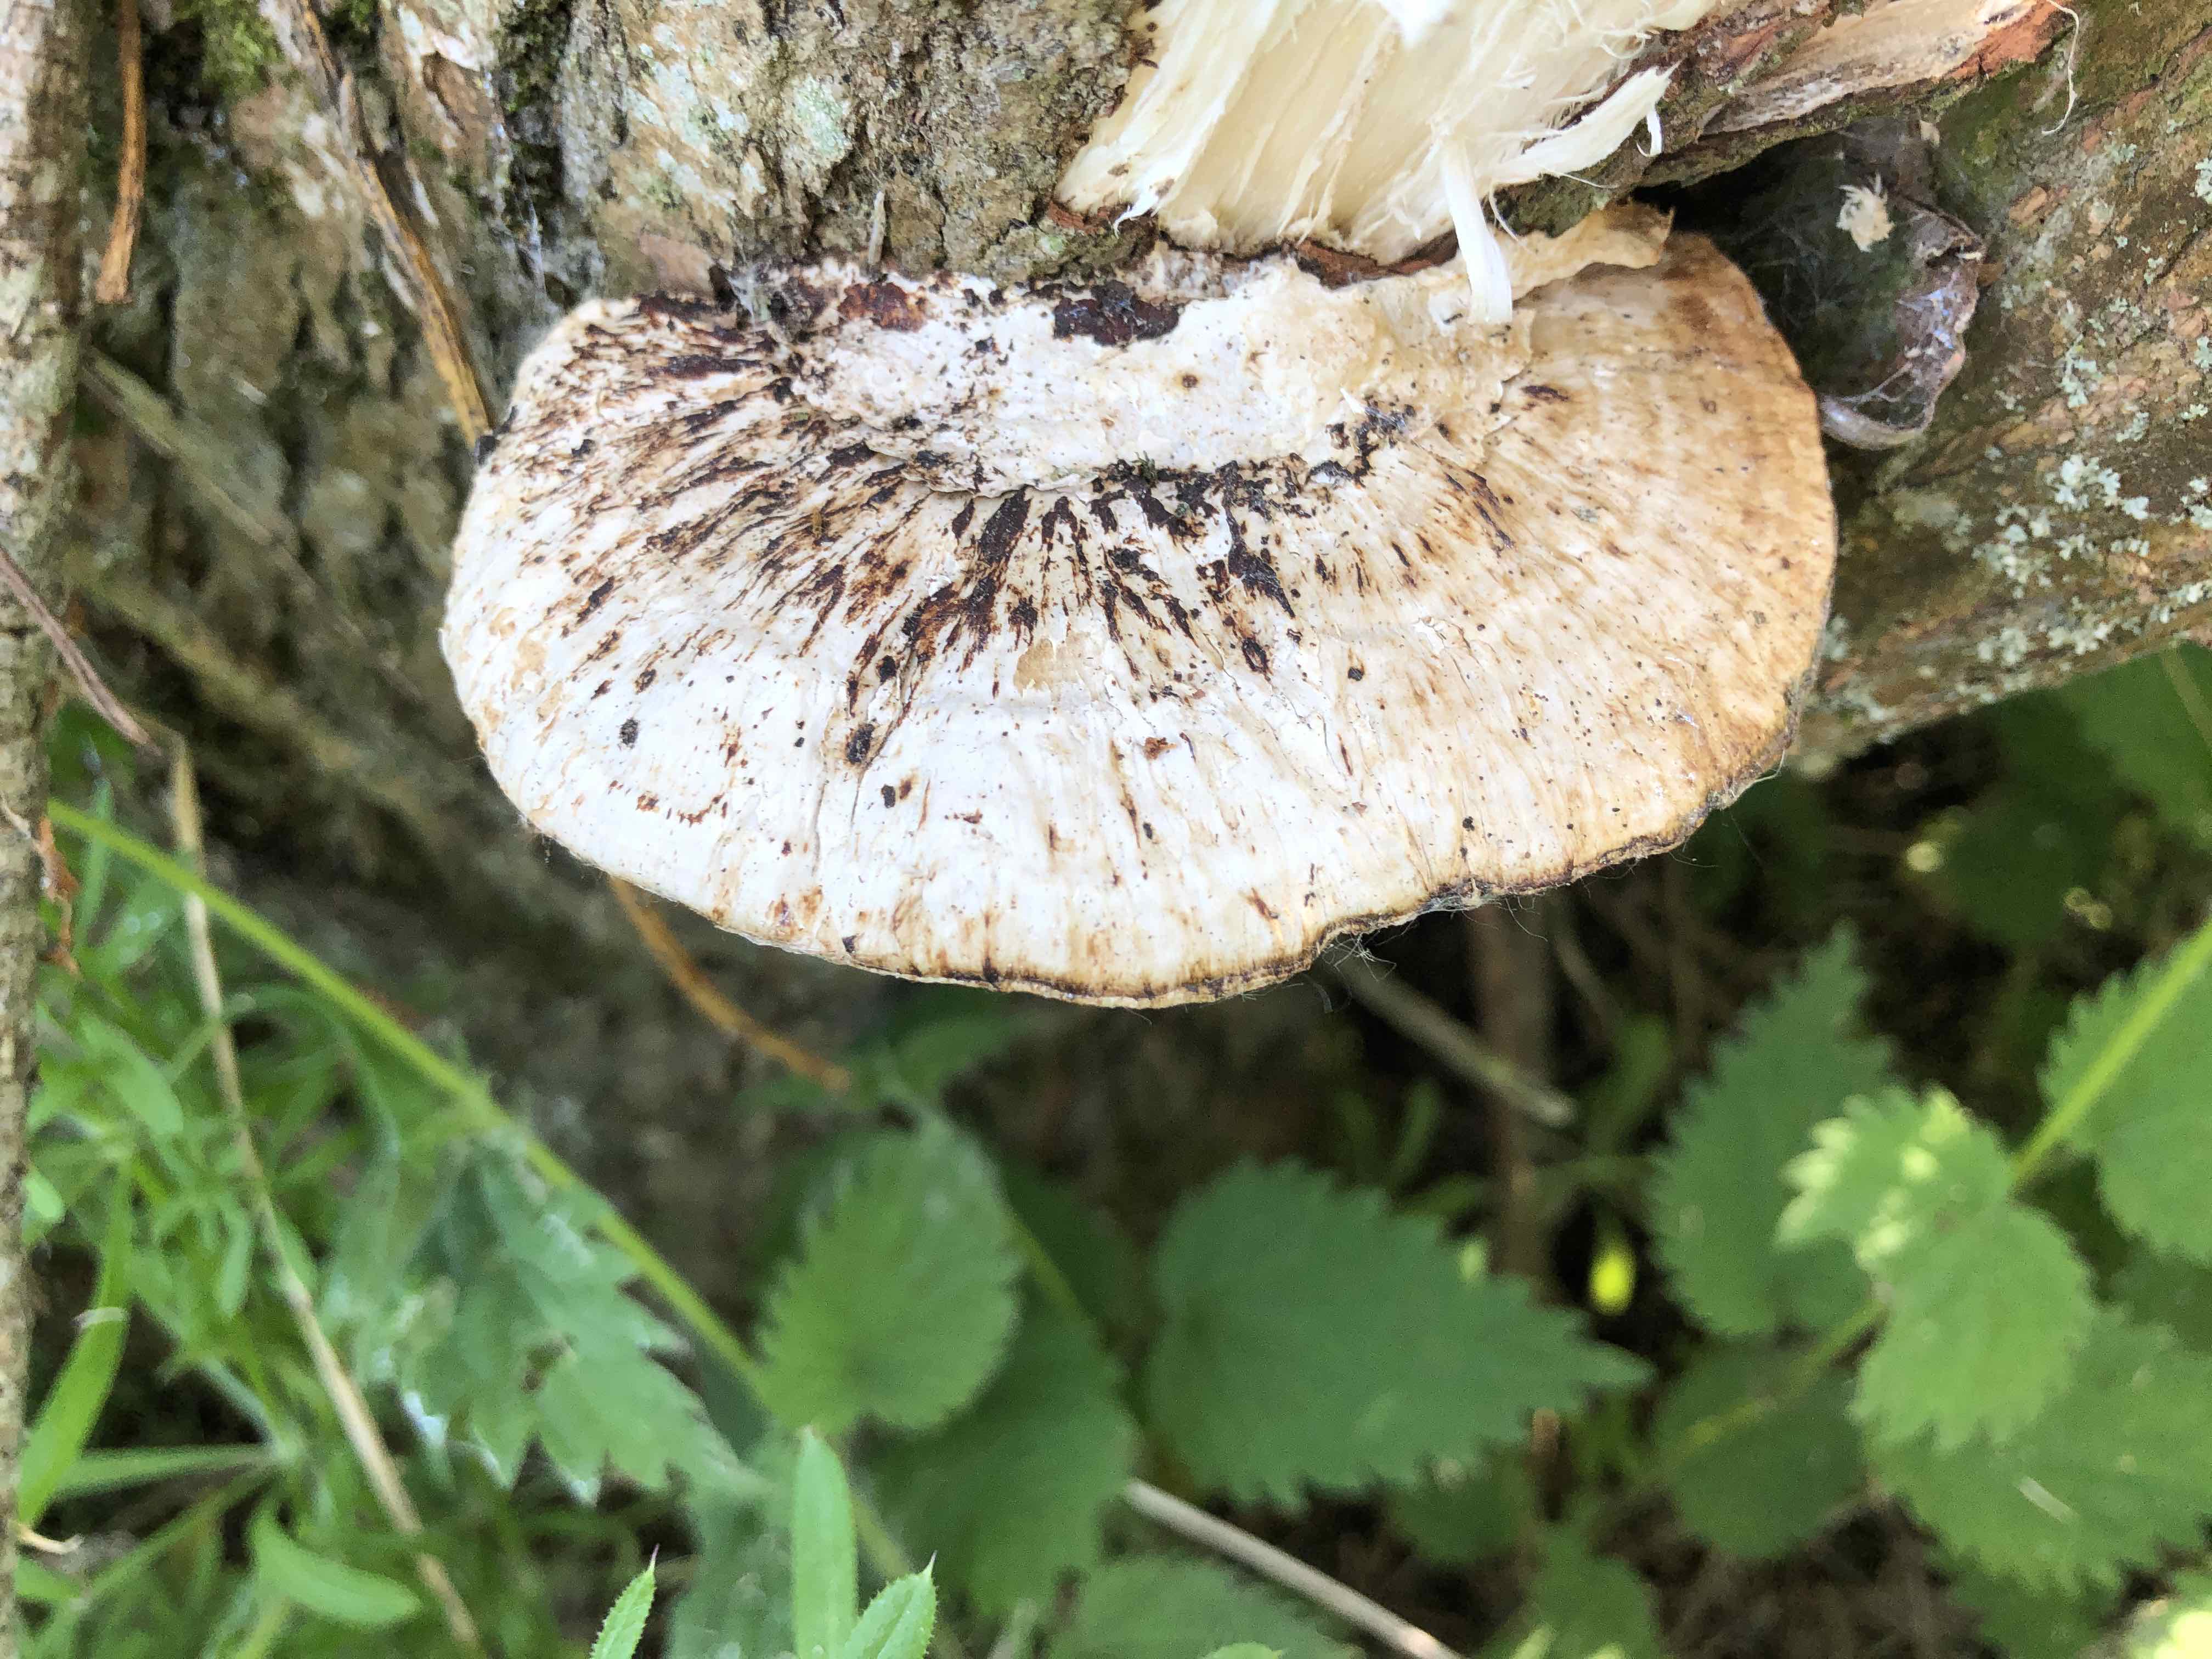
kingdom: Fungi
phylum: Basidiomycota
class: Agaricomycetes
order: Polyporales
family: Polyporaceae
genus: Daedaleopsis
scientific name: Daedaleopsis confragosa
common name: rødmende læderporesvamp
